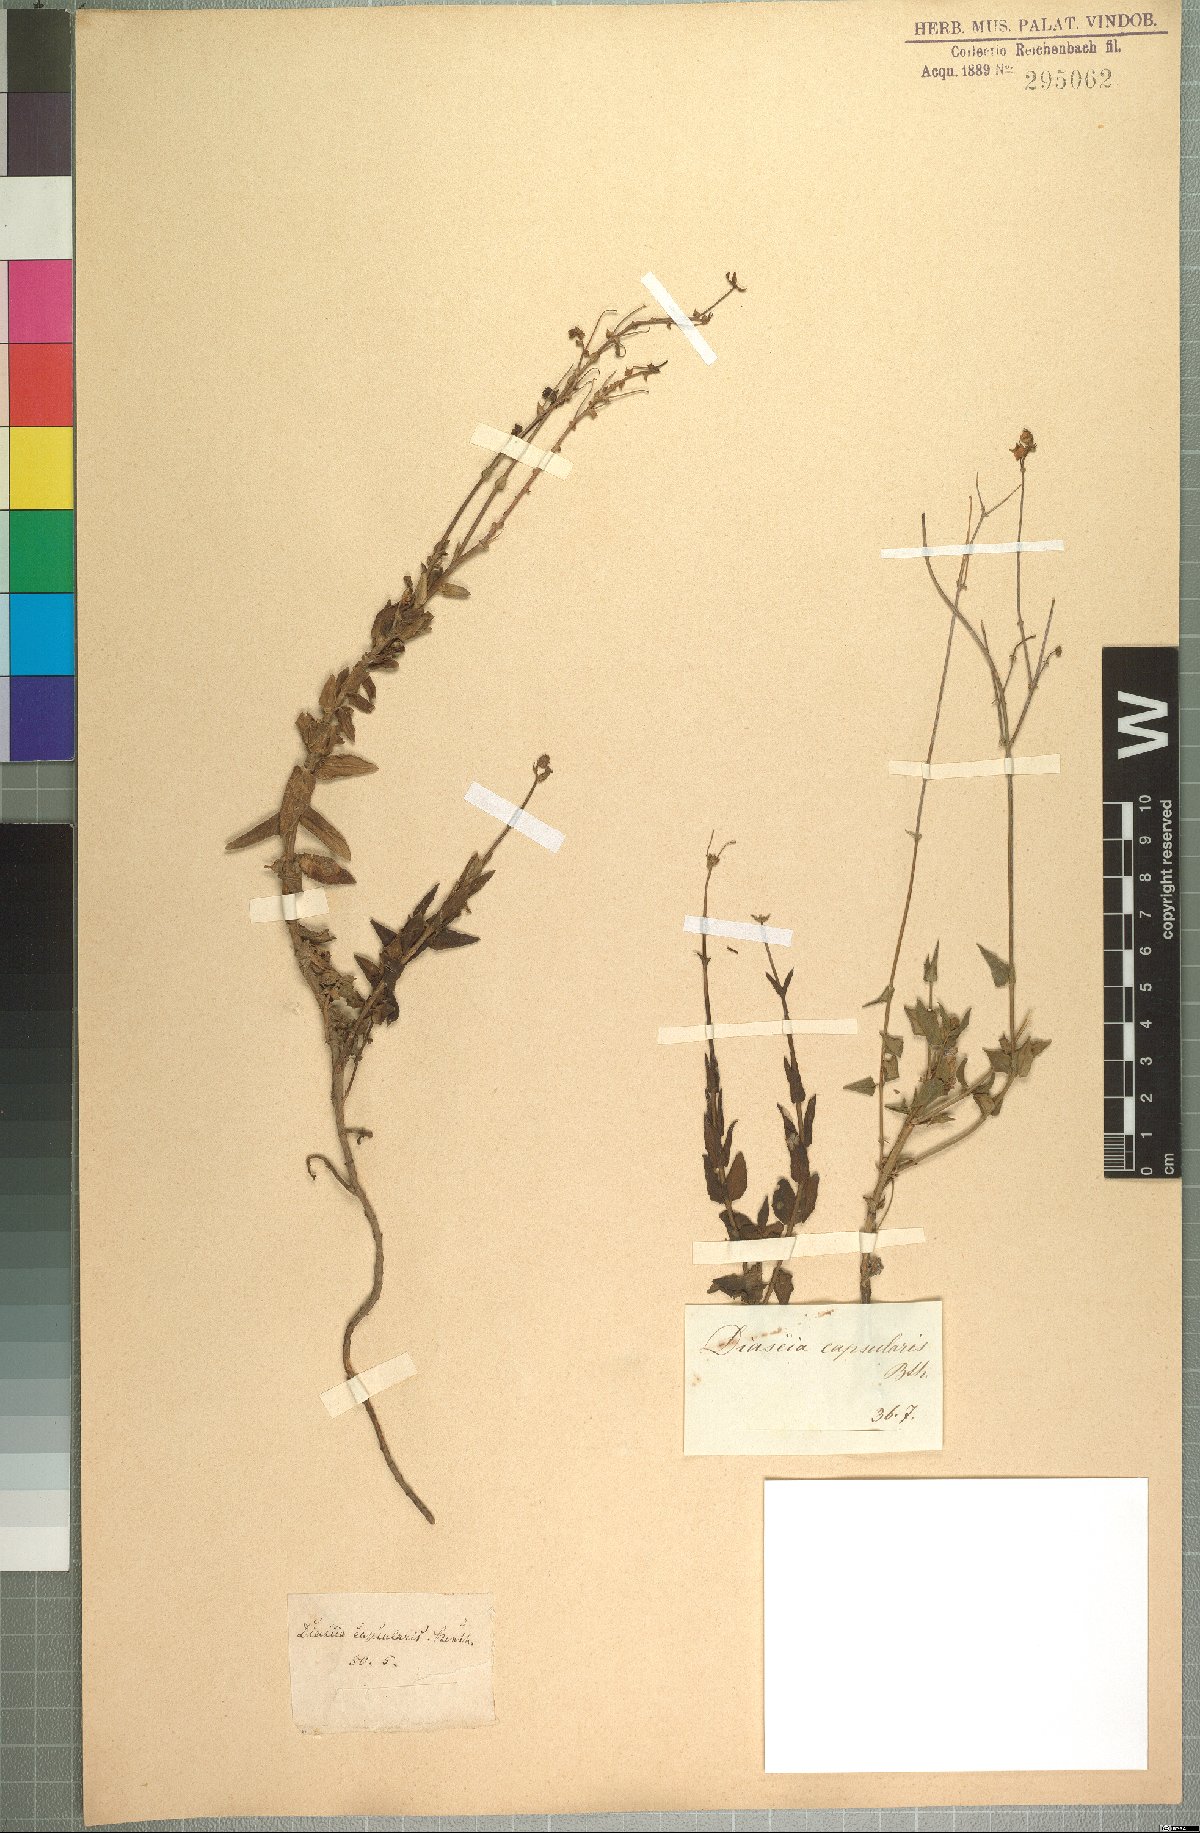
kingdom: Plantae
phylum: Tracheophyta
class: Magnoliopsida
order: Lamiales
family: Scrophulariaceae
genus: Diascia
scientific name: Diascia capsularis
